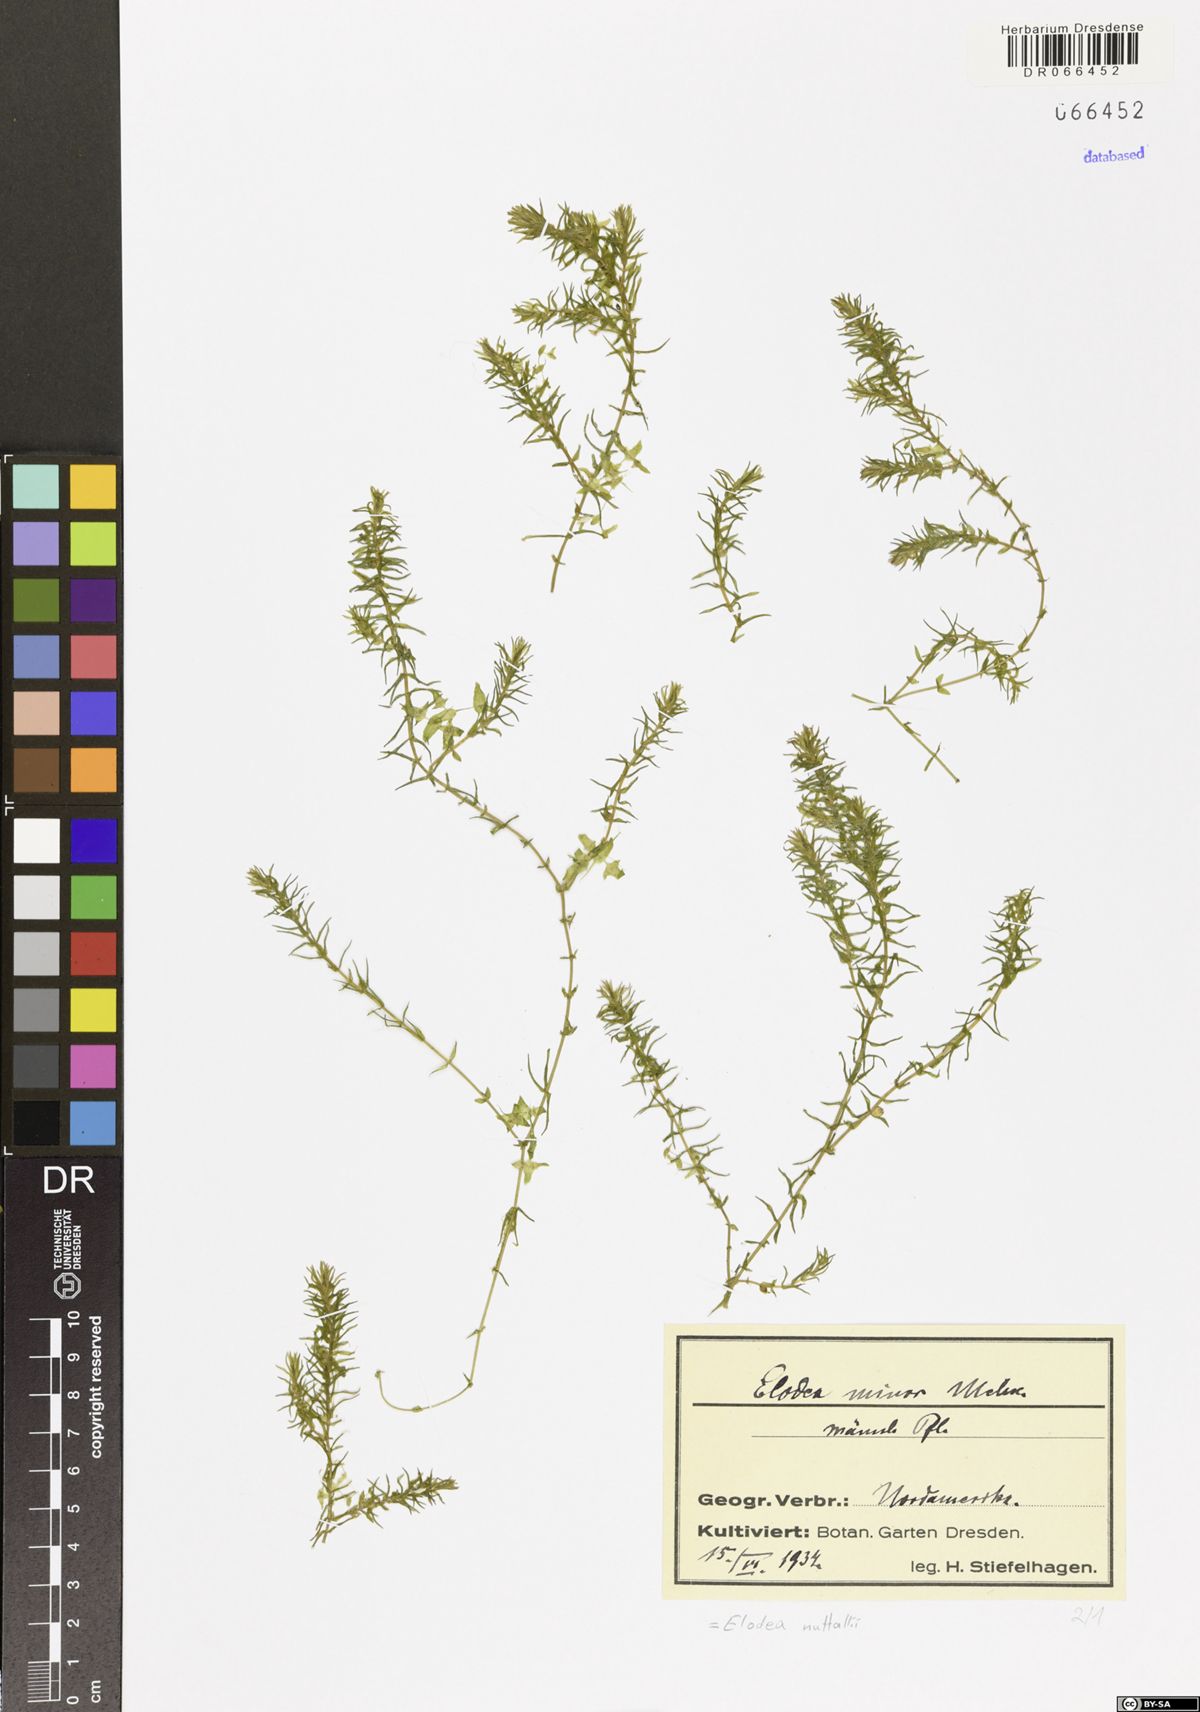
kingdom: Plantae
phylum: Tracheophyta
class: Liliopsida
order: Alismatales
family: Hydrocharitaceae
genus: Elodea
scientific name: Elodea nuttallii
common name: Nuttall's waterweed
